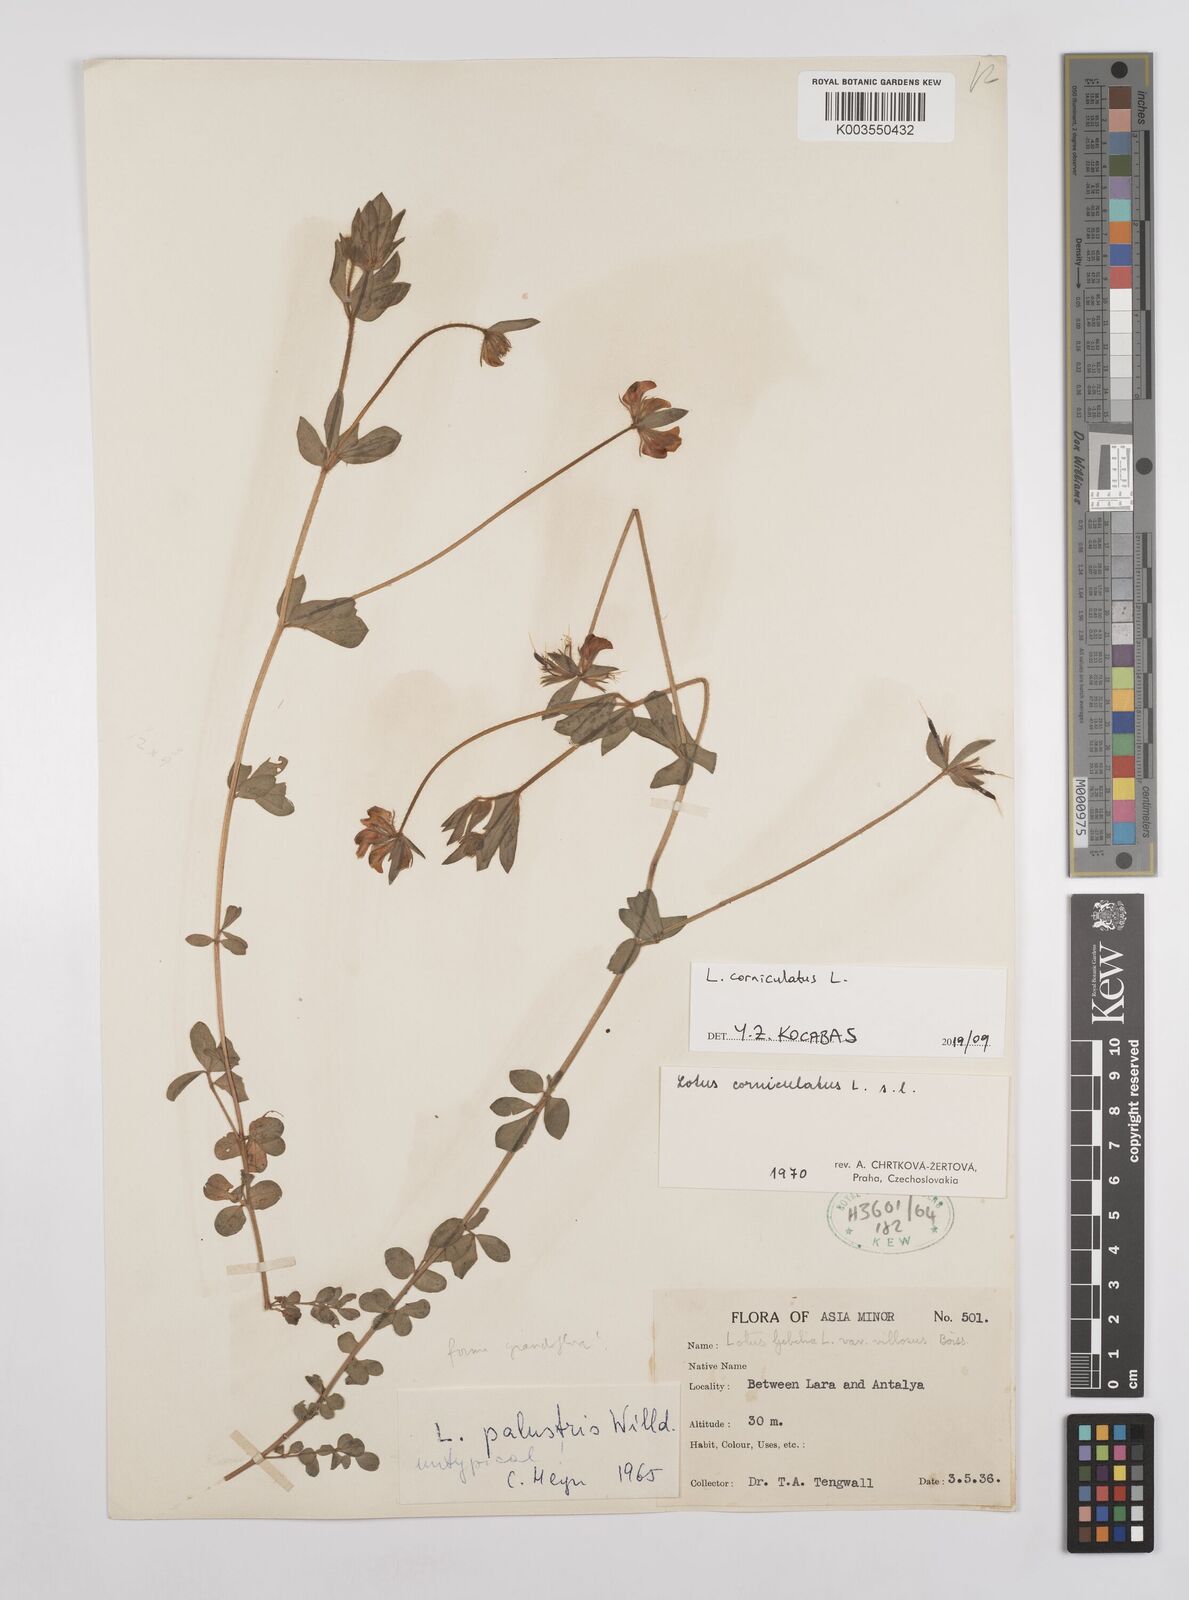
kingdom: Plantae
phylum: Tracheophyta
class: Magnoliopsida
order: Fabales
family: Fabaceae
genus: Lotus
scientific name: Lotus palustris
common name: Large birds-foot trefoil
